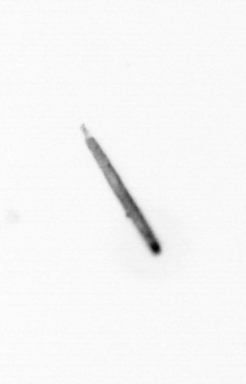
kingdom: Chromista
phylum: Ochrophyta
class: Bacillariophyceae
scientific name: Bacillariophyceae
